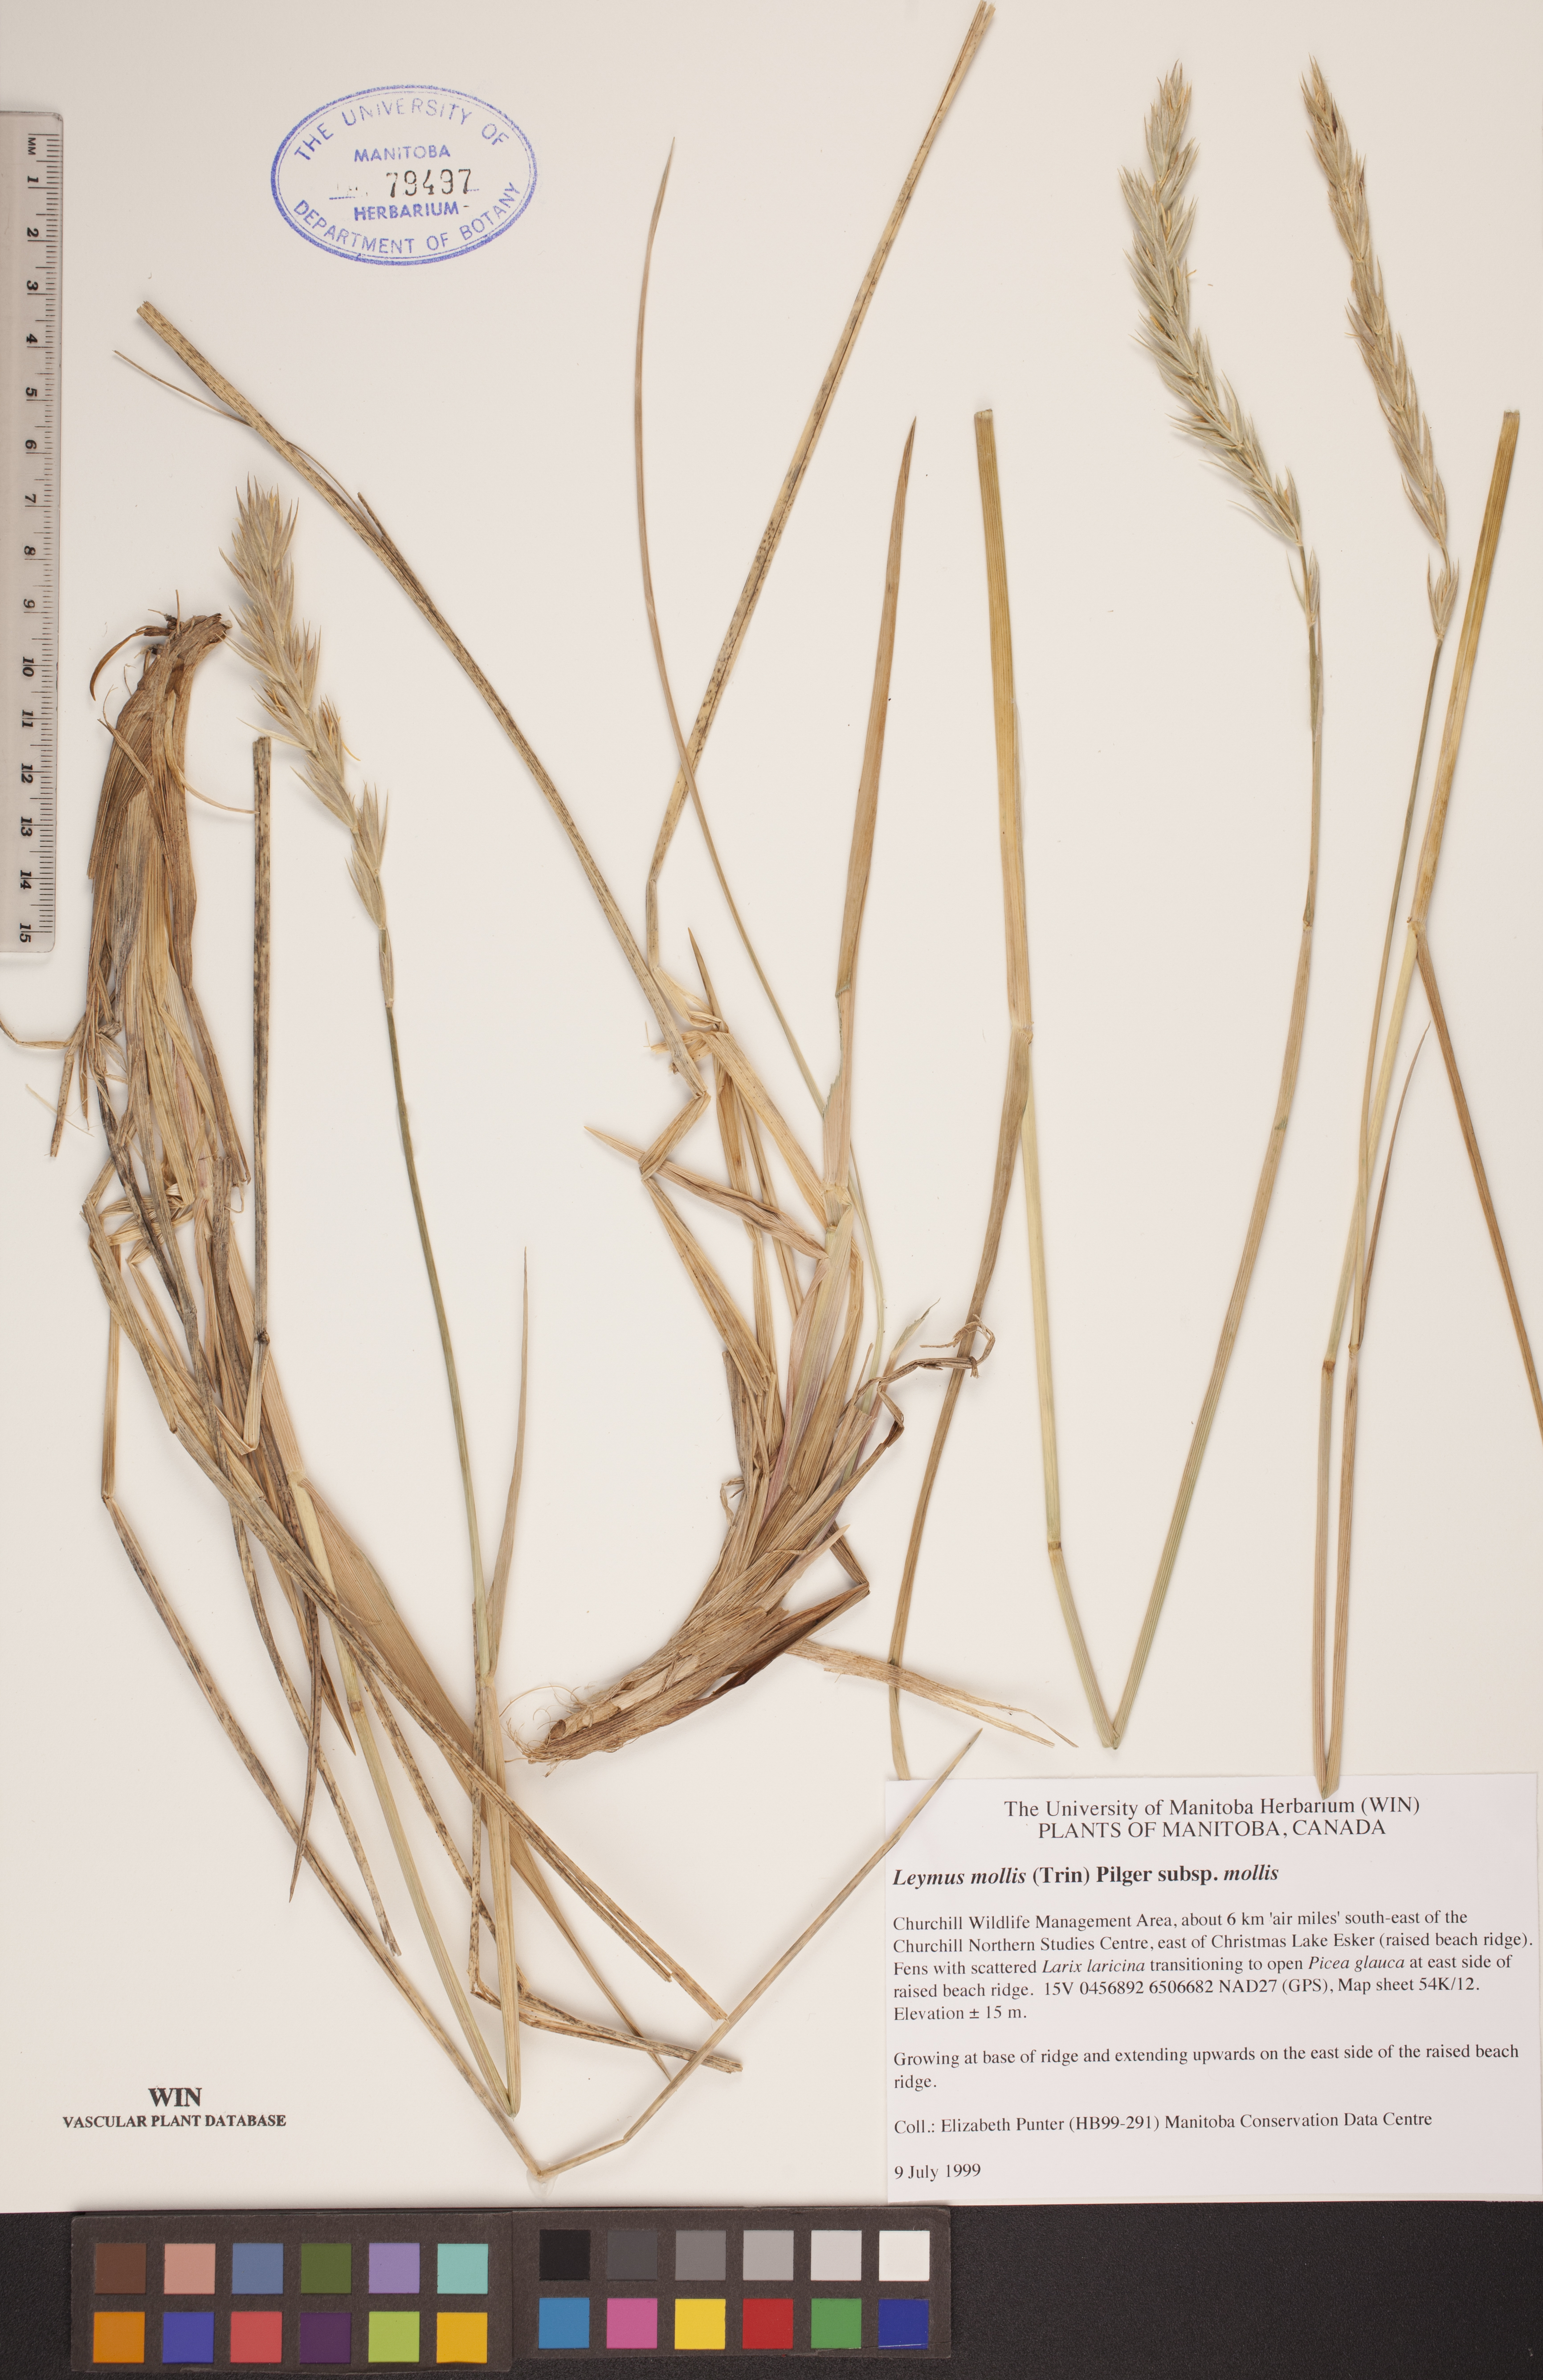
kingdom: Plantae
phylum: Tracheophyta
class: Liliopsida
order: Poales
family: Poaceae
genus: Leymus
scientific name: Leymus mollis
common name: American dune grass
